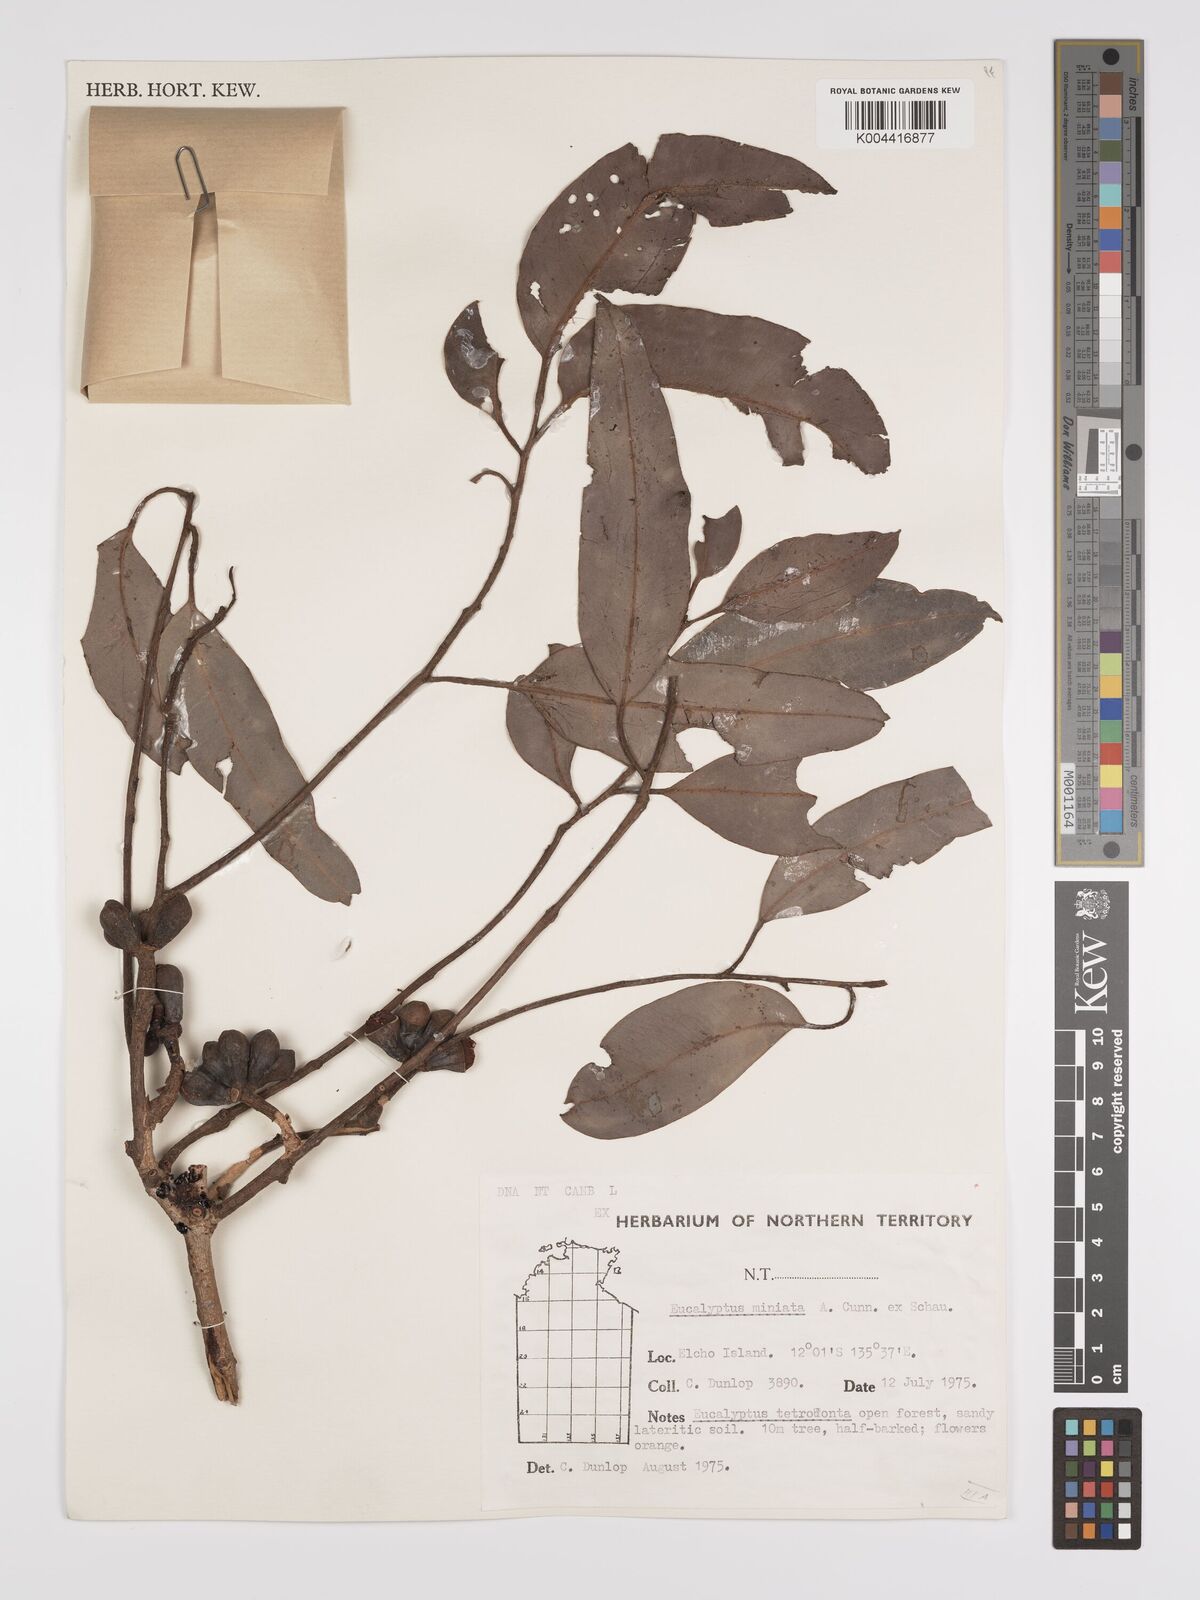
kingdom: Plantae
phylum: Tracheophyta
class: Magnoliopsida
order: Myrtales
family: Myrtaceae
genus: Eucalyptus
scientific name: Eucalyptus miniata
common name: Darwin-woollybutt
